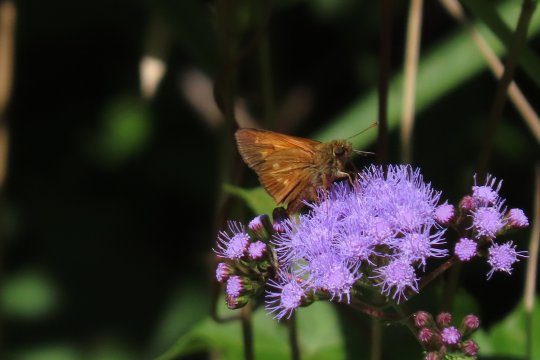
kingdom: Animalia
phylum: Arthropoda
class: Insecta
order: Lepidoptera
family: Hesperiidae
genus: Poanes
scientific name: Poanes yehl
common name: Yehl Skipper
